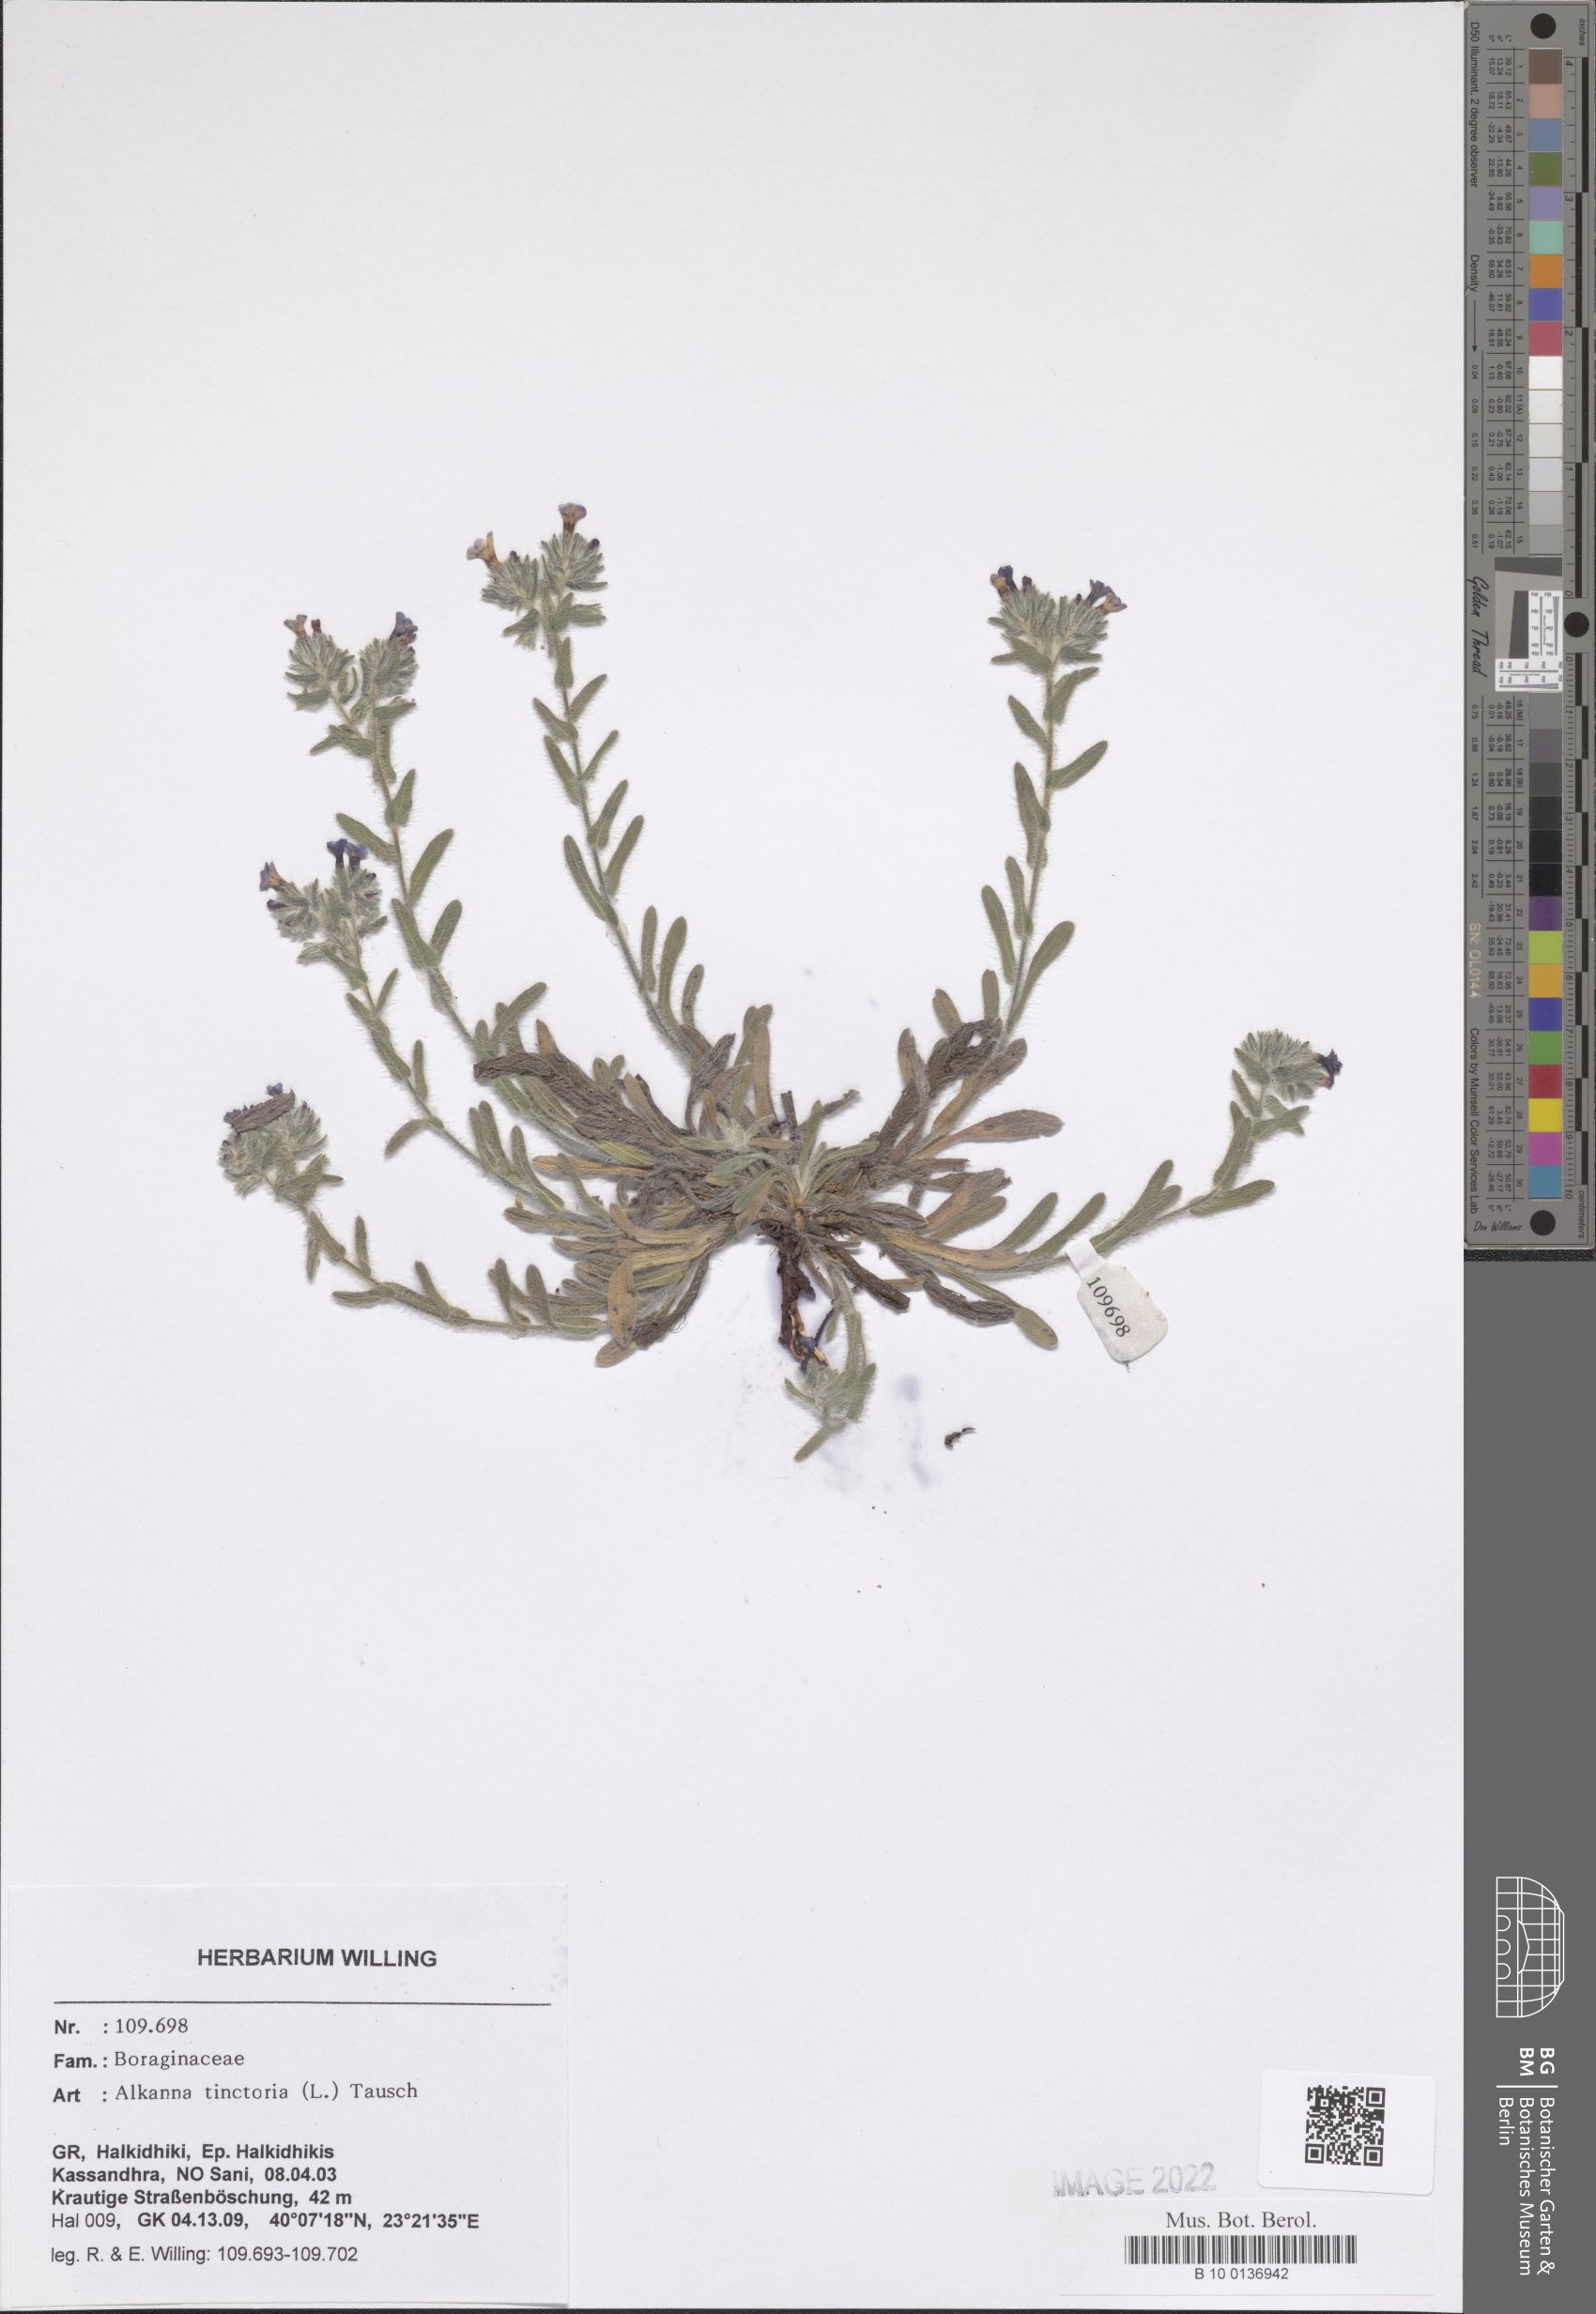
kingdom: Plantae
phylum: Tracheophyta
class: Magnoliopsida
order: Boraginales
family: Boraginaceae
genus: Alkanna
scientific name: Alkanna tinctoria
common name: Dyer's-alkanet
